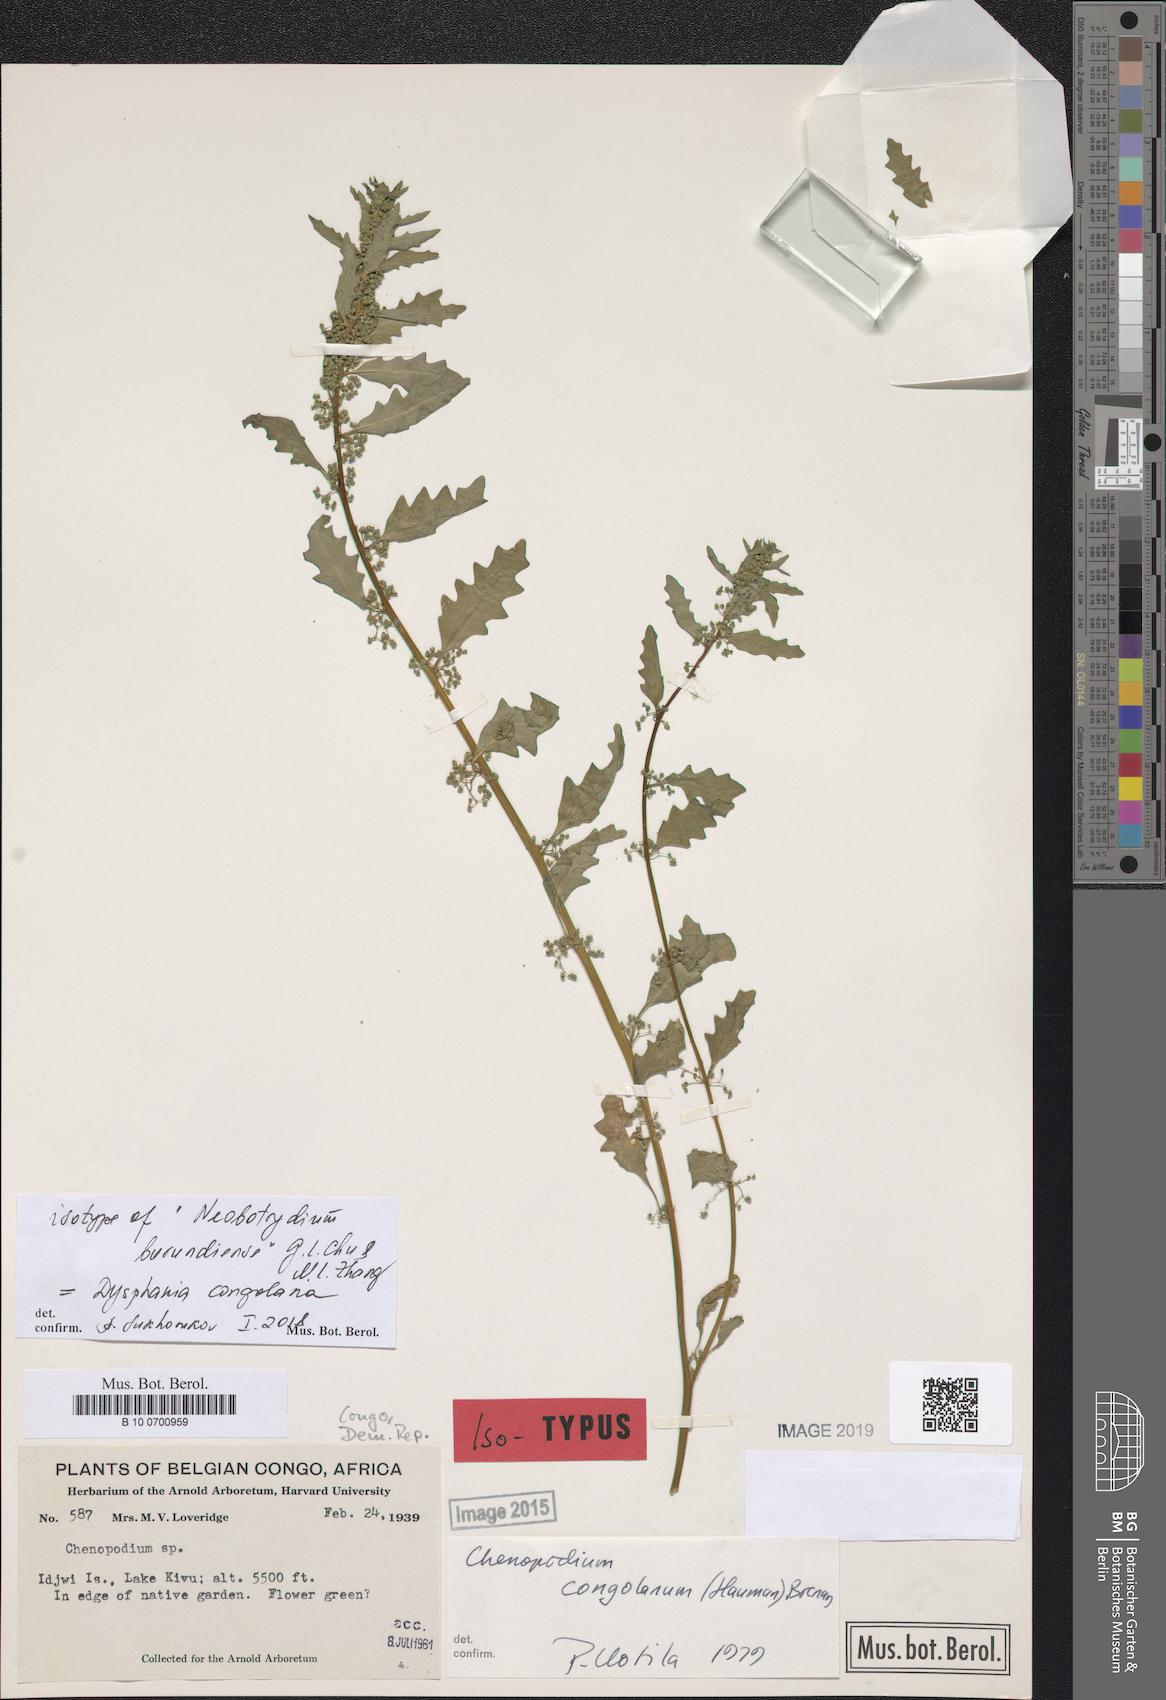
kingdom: Plantae
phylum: Tracheophyta
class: Magnoliopsida
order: Caryophyllales
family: Amaranthaceae
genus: Dysphania
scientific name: Dysphania congolana
